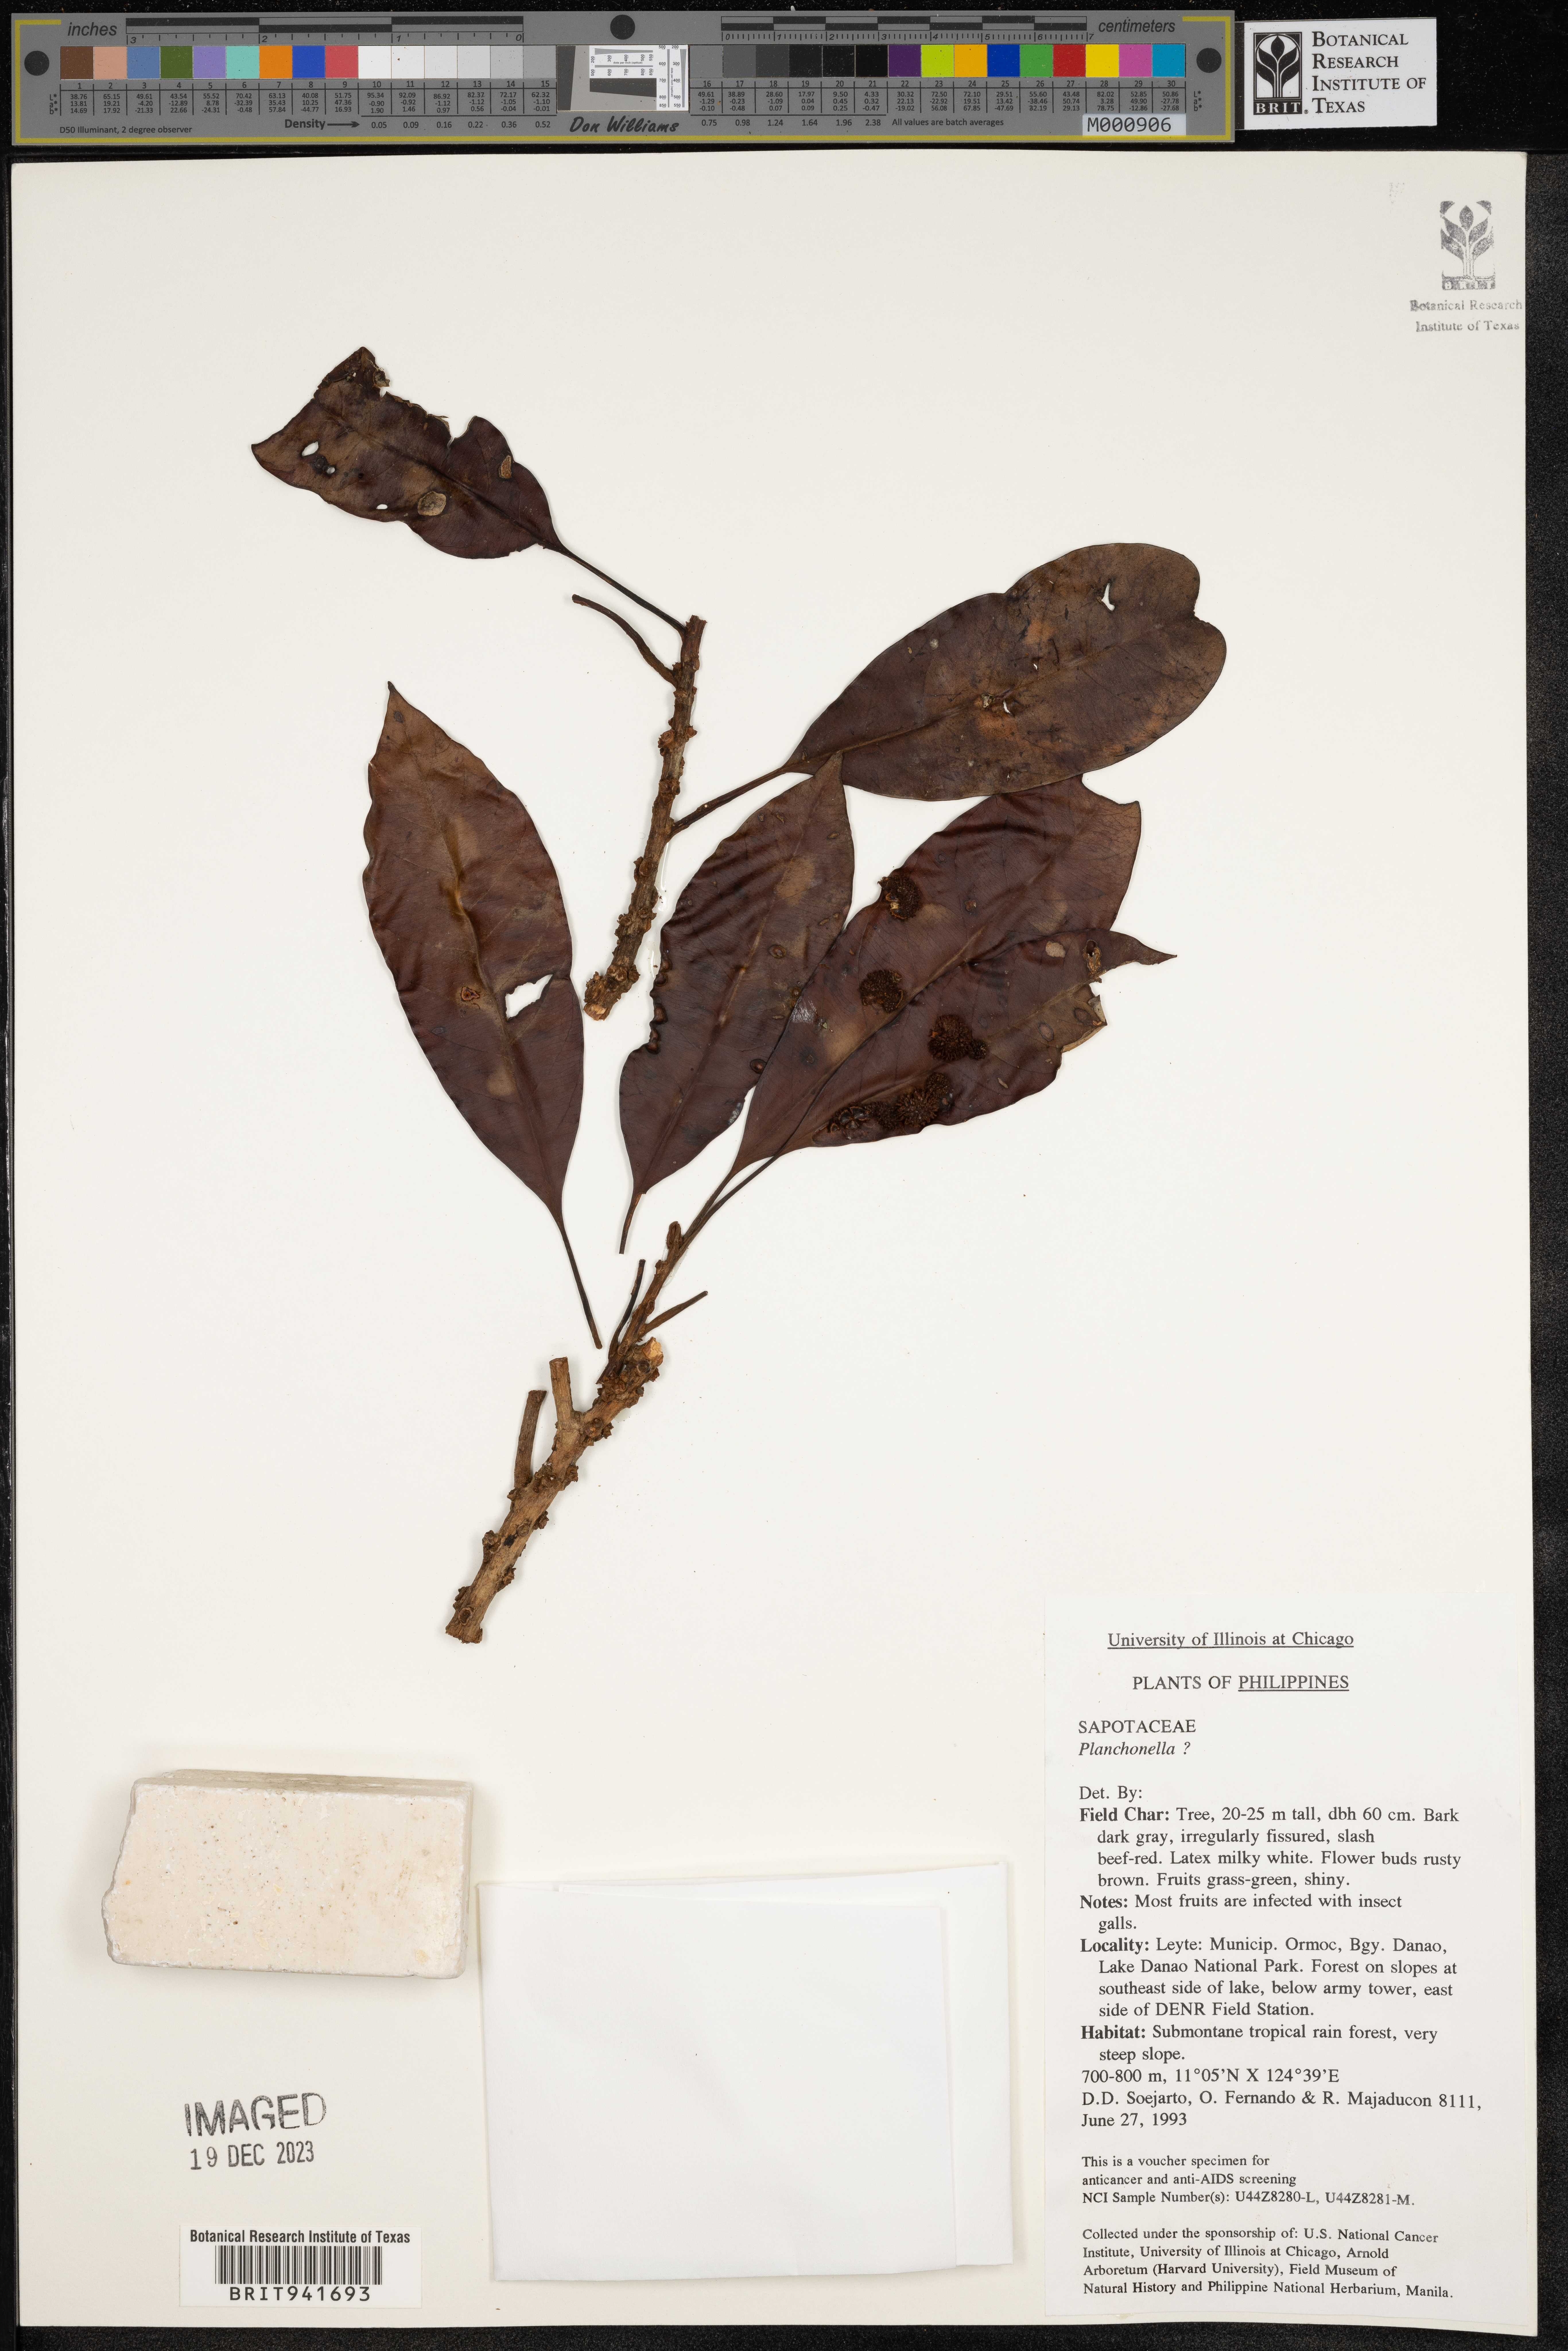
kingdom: Plantae
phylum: Tracheophyta
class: Magnoliopsida
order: Ericales
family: Sapotaceae
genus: Pouteria
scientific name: Pouteria
